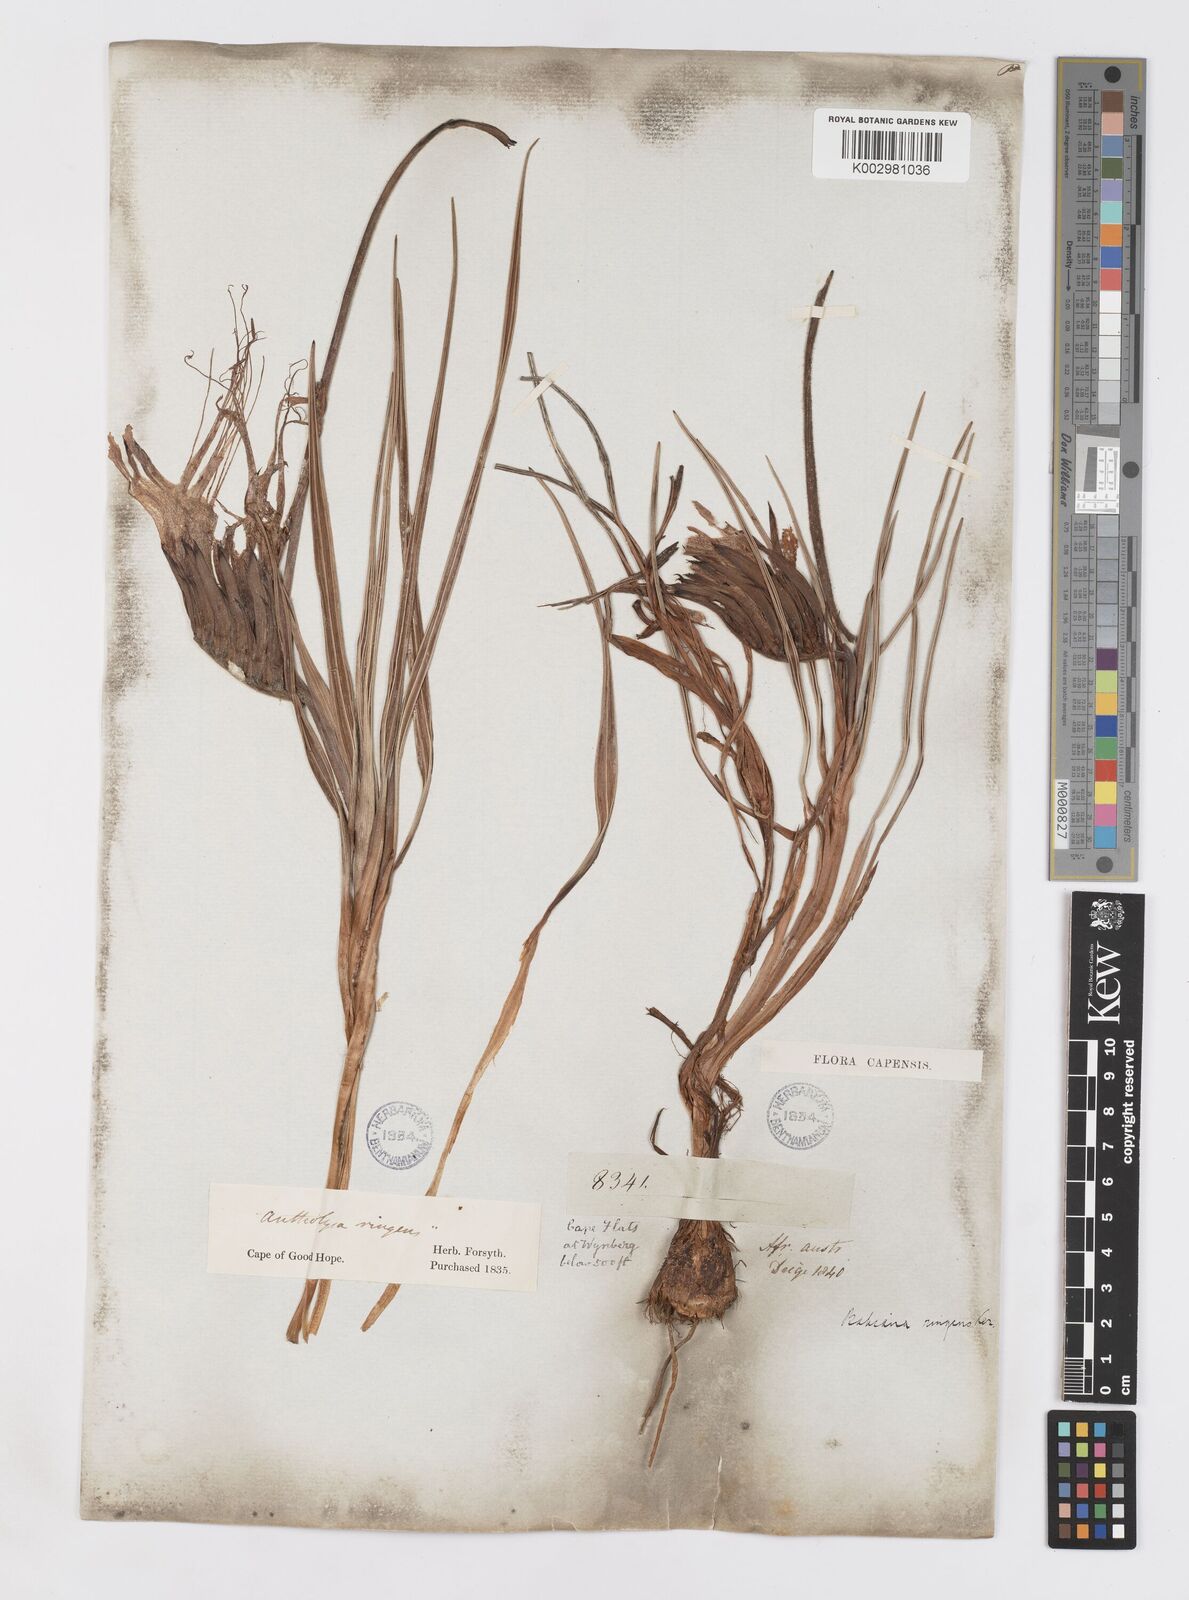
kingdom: Plantae
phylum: Tracheophyta
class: Liliopsida
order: Asparagales
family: Iridaceae
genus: Babiana
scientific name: Babiana ringens
